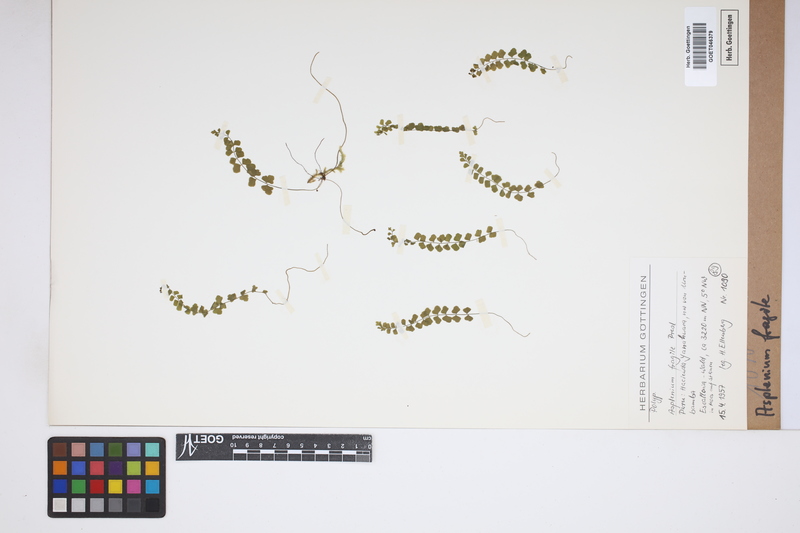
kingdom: Plantae
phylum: Tracheophyta
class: Polypodiopsida
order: Polypodiales
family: Aspleniaceae
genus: Asplenium
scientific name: Asplenium peruvianum
